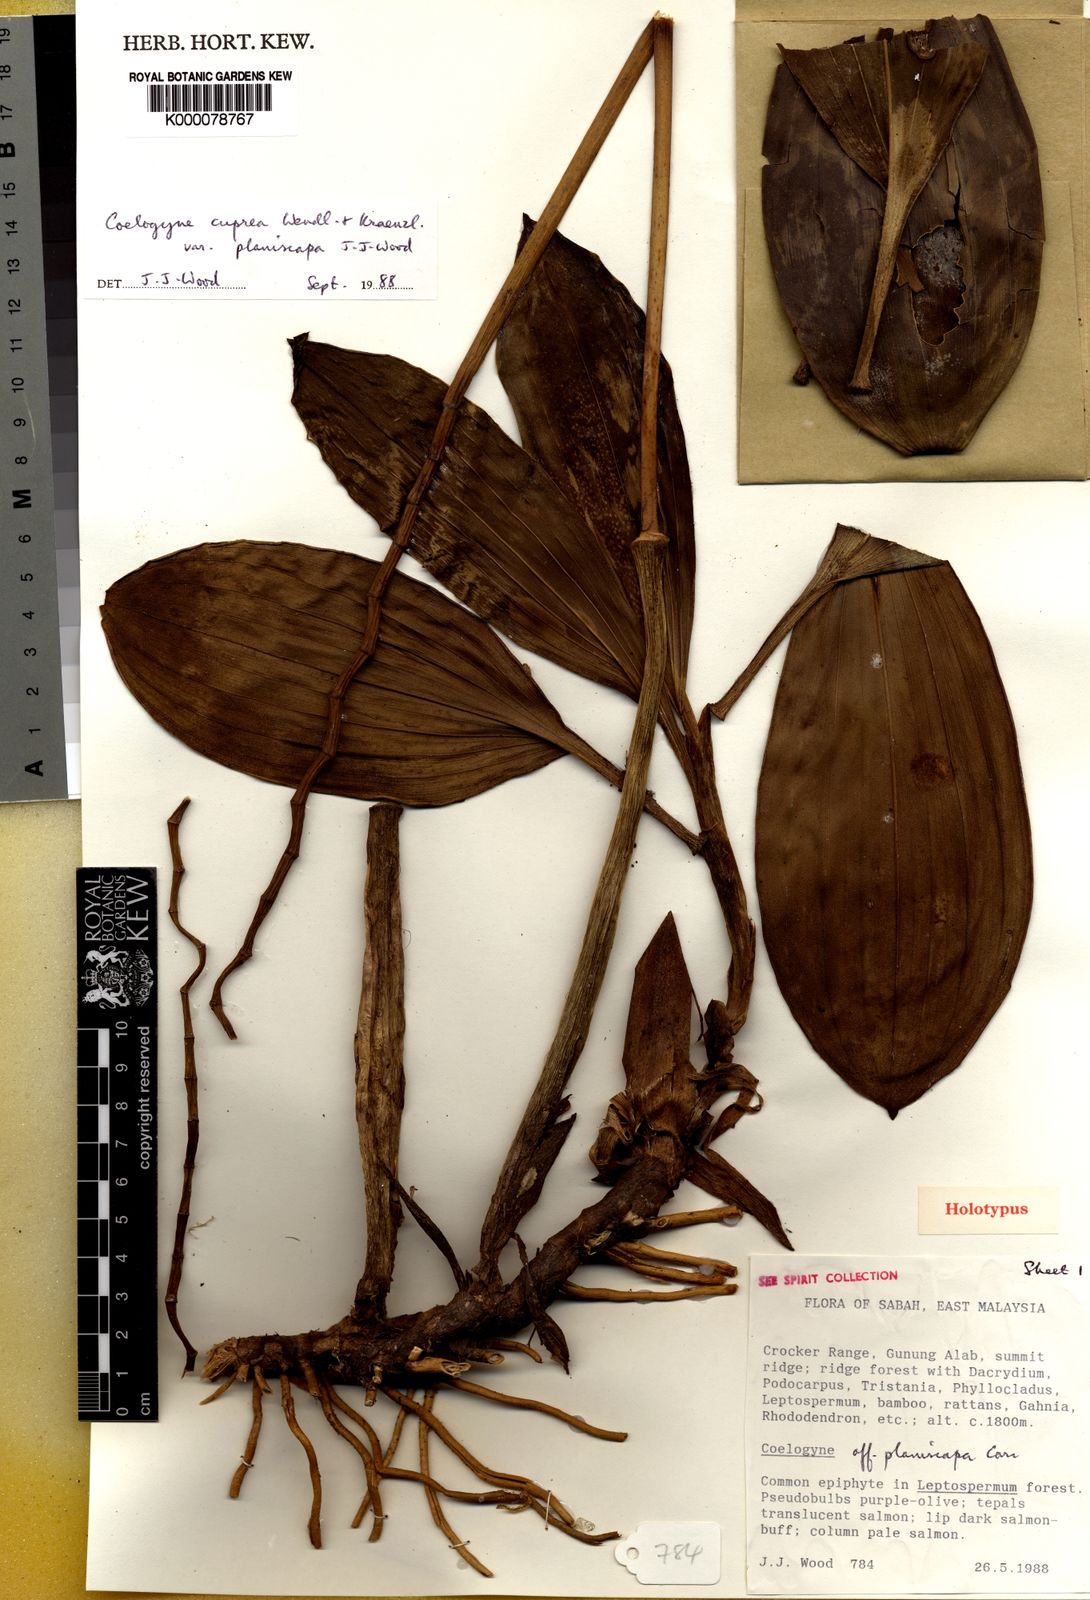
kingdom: Plantae
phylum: Tracheophyta
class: Liliopsida
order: Asparagales
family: Orchidaceae
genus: Coelogyne
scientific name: Coelogyne cuprea
